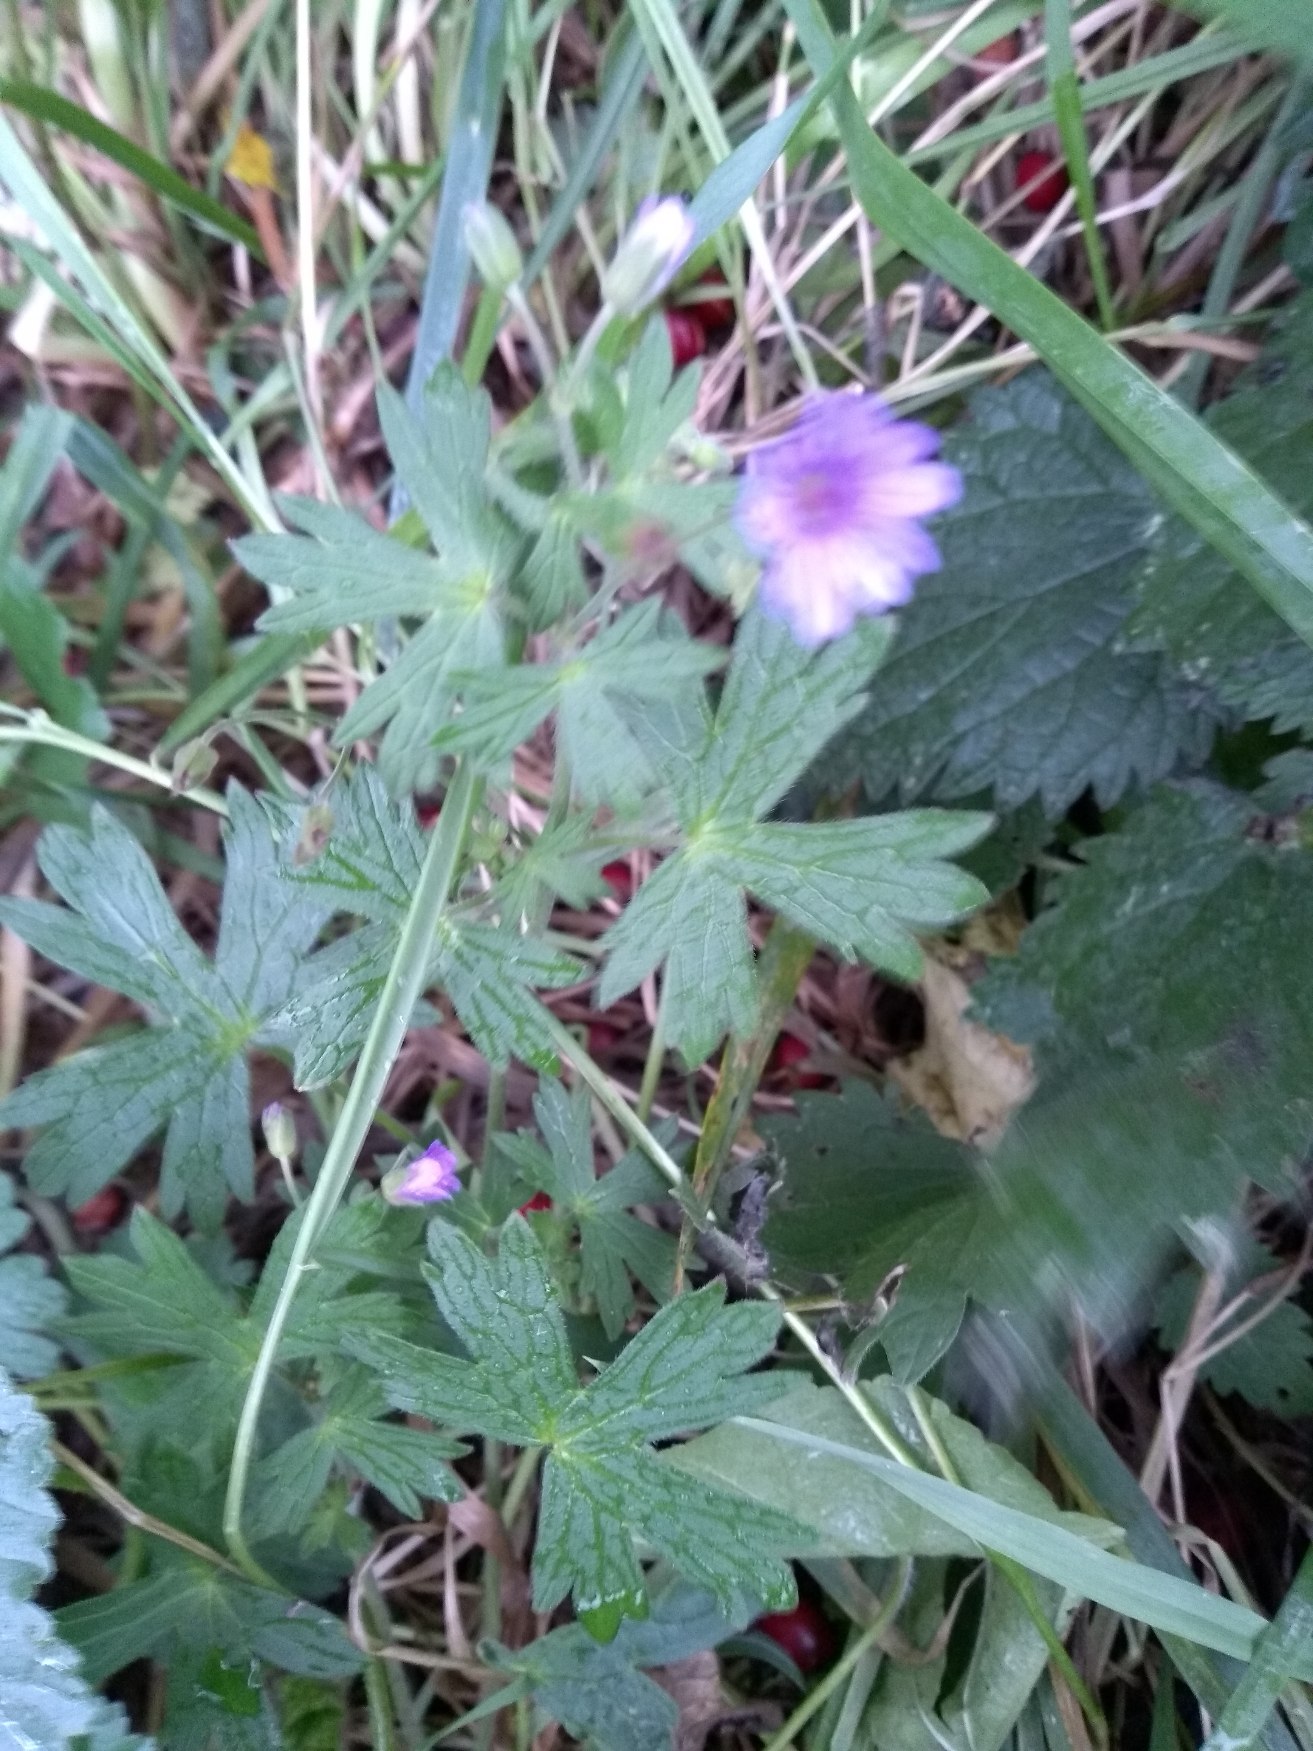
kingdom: Plantae
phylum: Tracheophyta
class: Magnoliopsida
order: Geraniales
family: Geraniaceae
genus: Geranium
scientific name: Geranium molle
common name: Blød storkenæb
